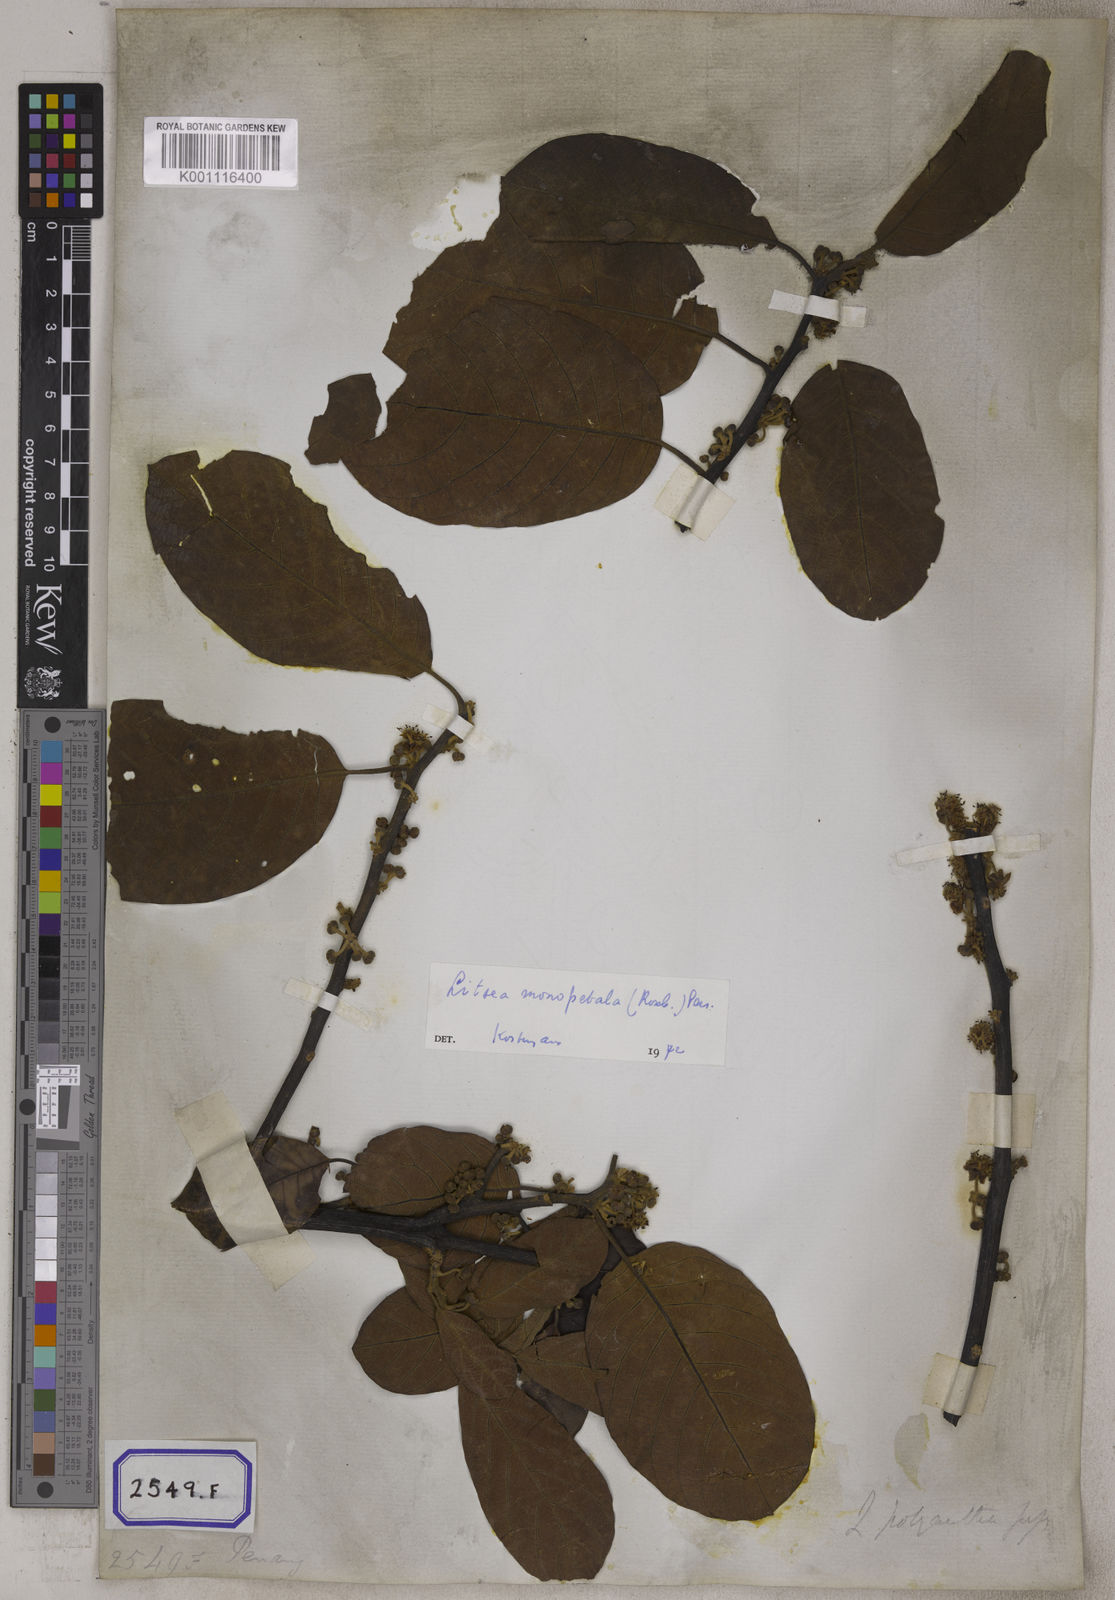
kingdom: Plantae
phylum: Tracheophyta
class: Magnoliopsida
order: Laurales
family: Lauraceae
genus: Litsea
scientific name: Litsea
